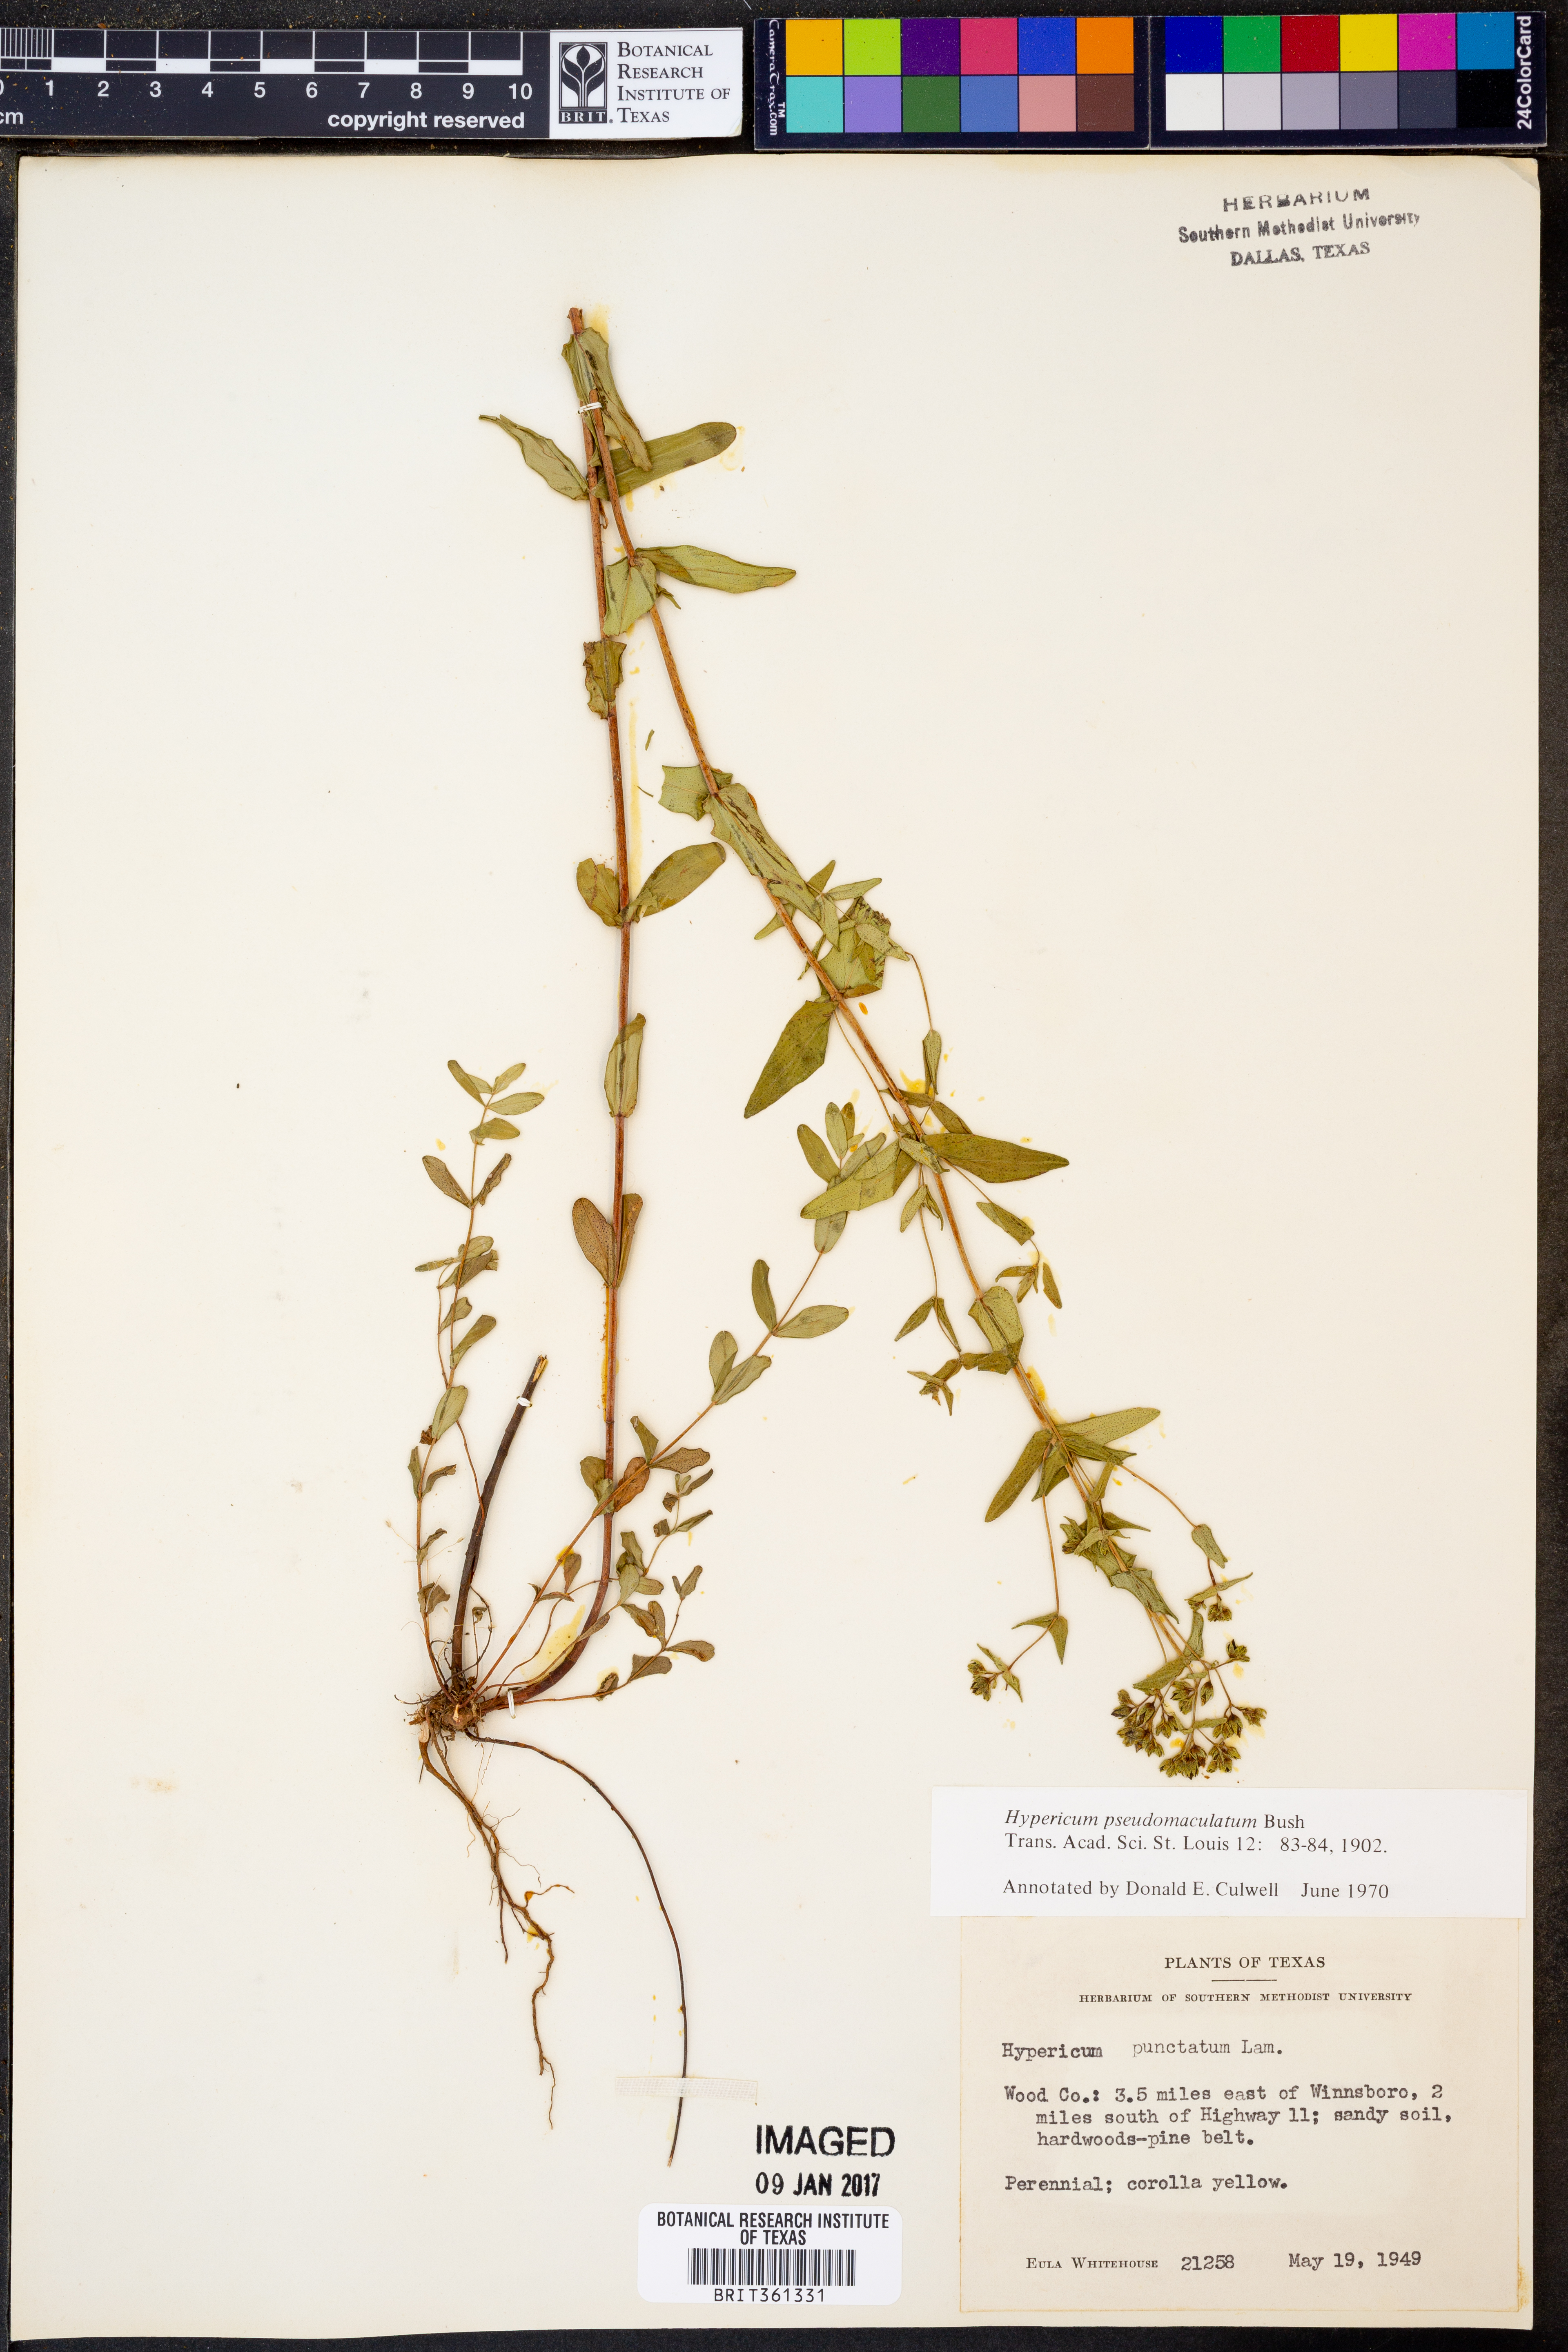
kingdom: Plantae
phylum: Tracheophyta
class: Magnoliopsida
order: Malpighiales
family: Hypericaceae
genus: Hypericum
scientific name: Hypericum pseudomaculatum
